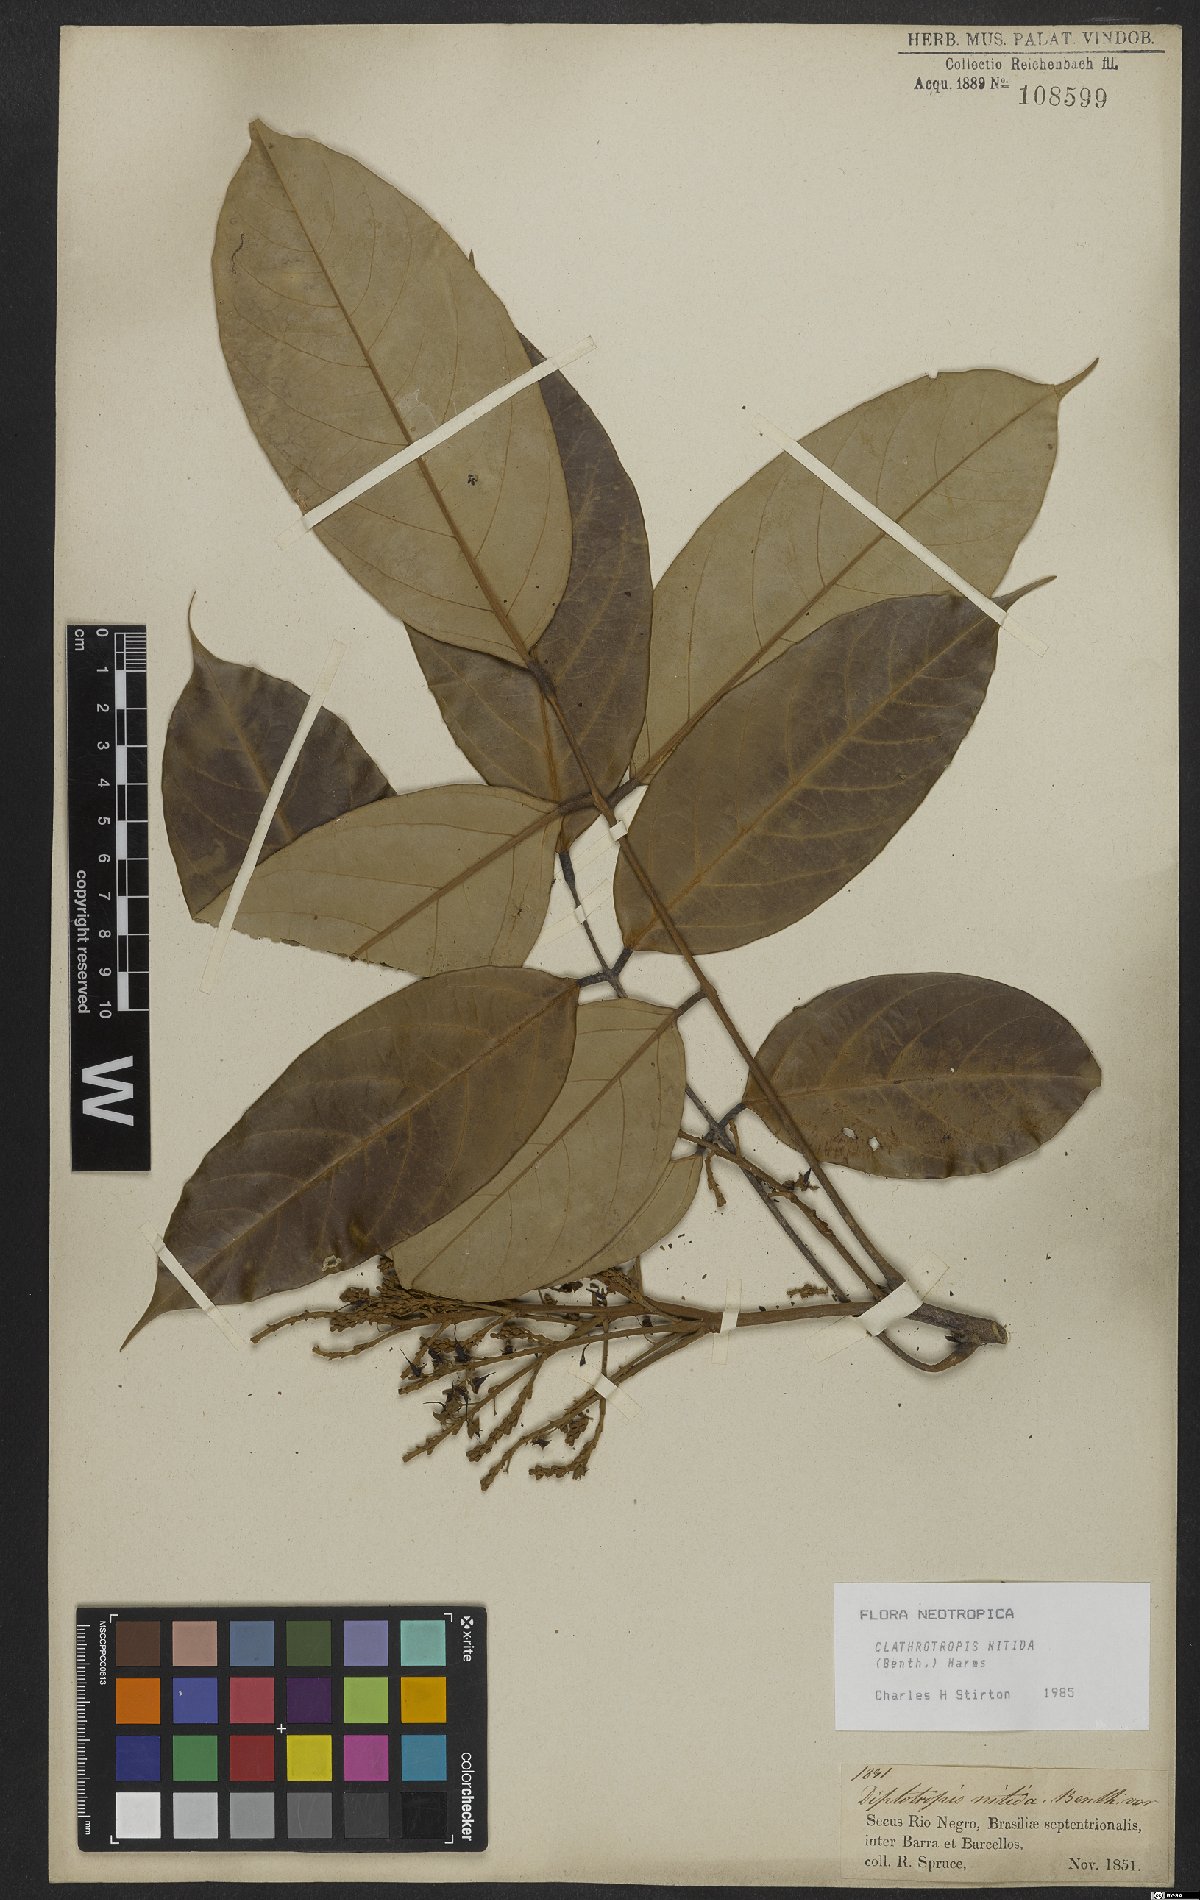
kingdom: Plantae
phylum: Tracheophyta
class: Magnoliopsida
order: Fabales
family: Fabaceae
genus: Clathrotropis
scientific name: Clathrotropis nitida
